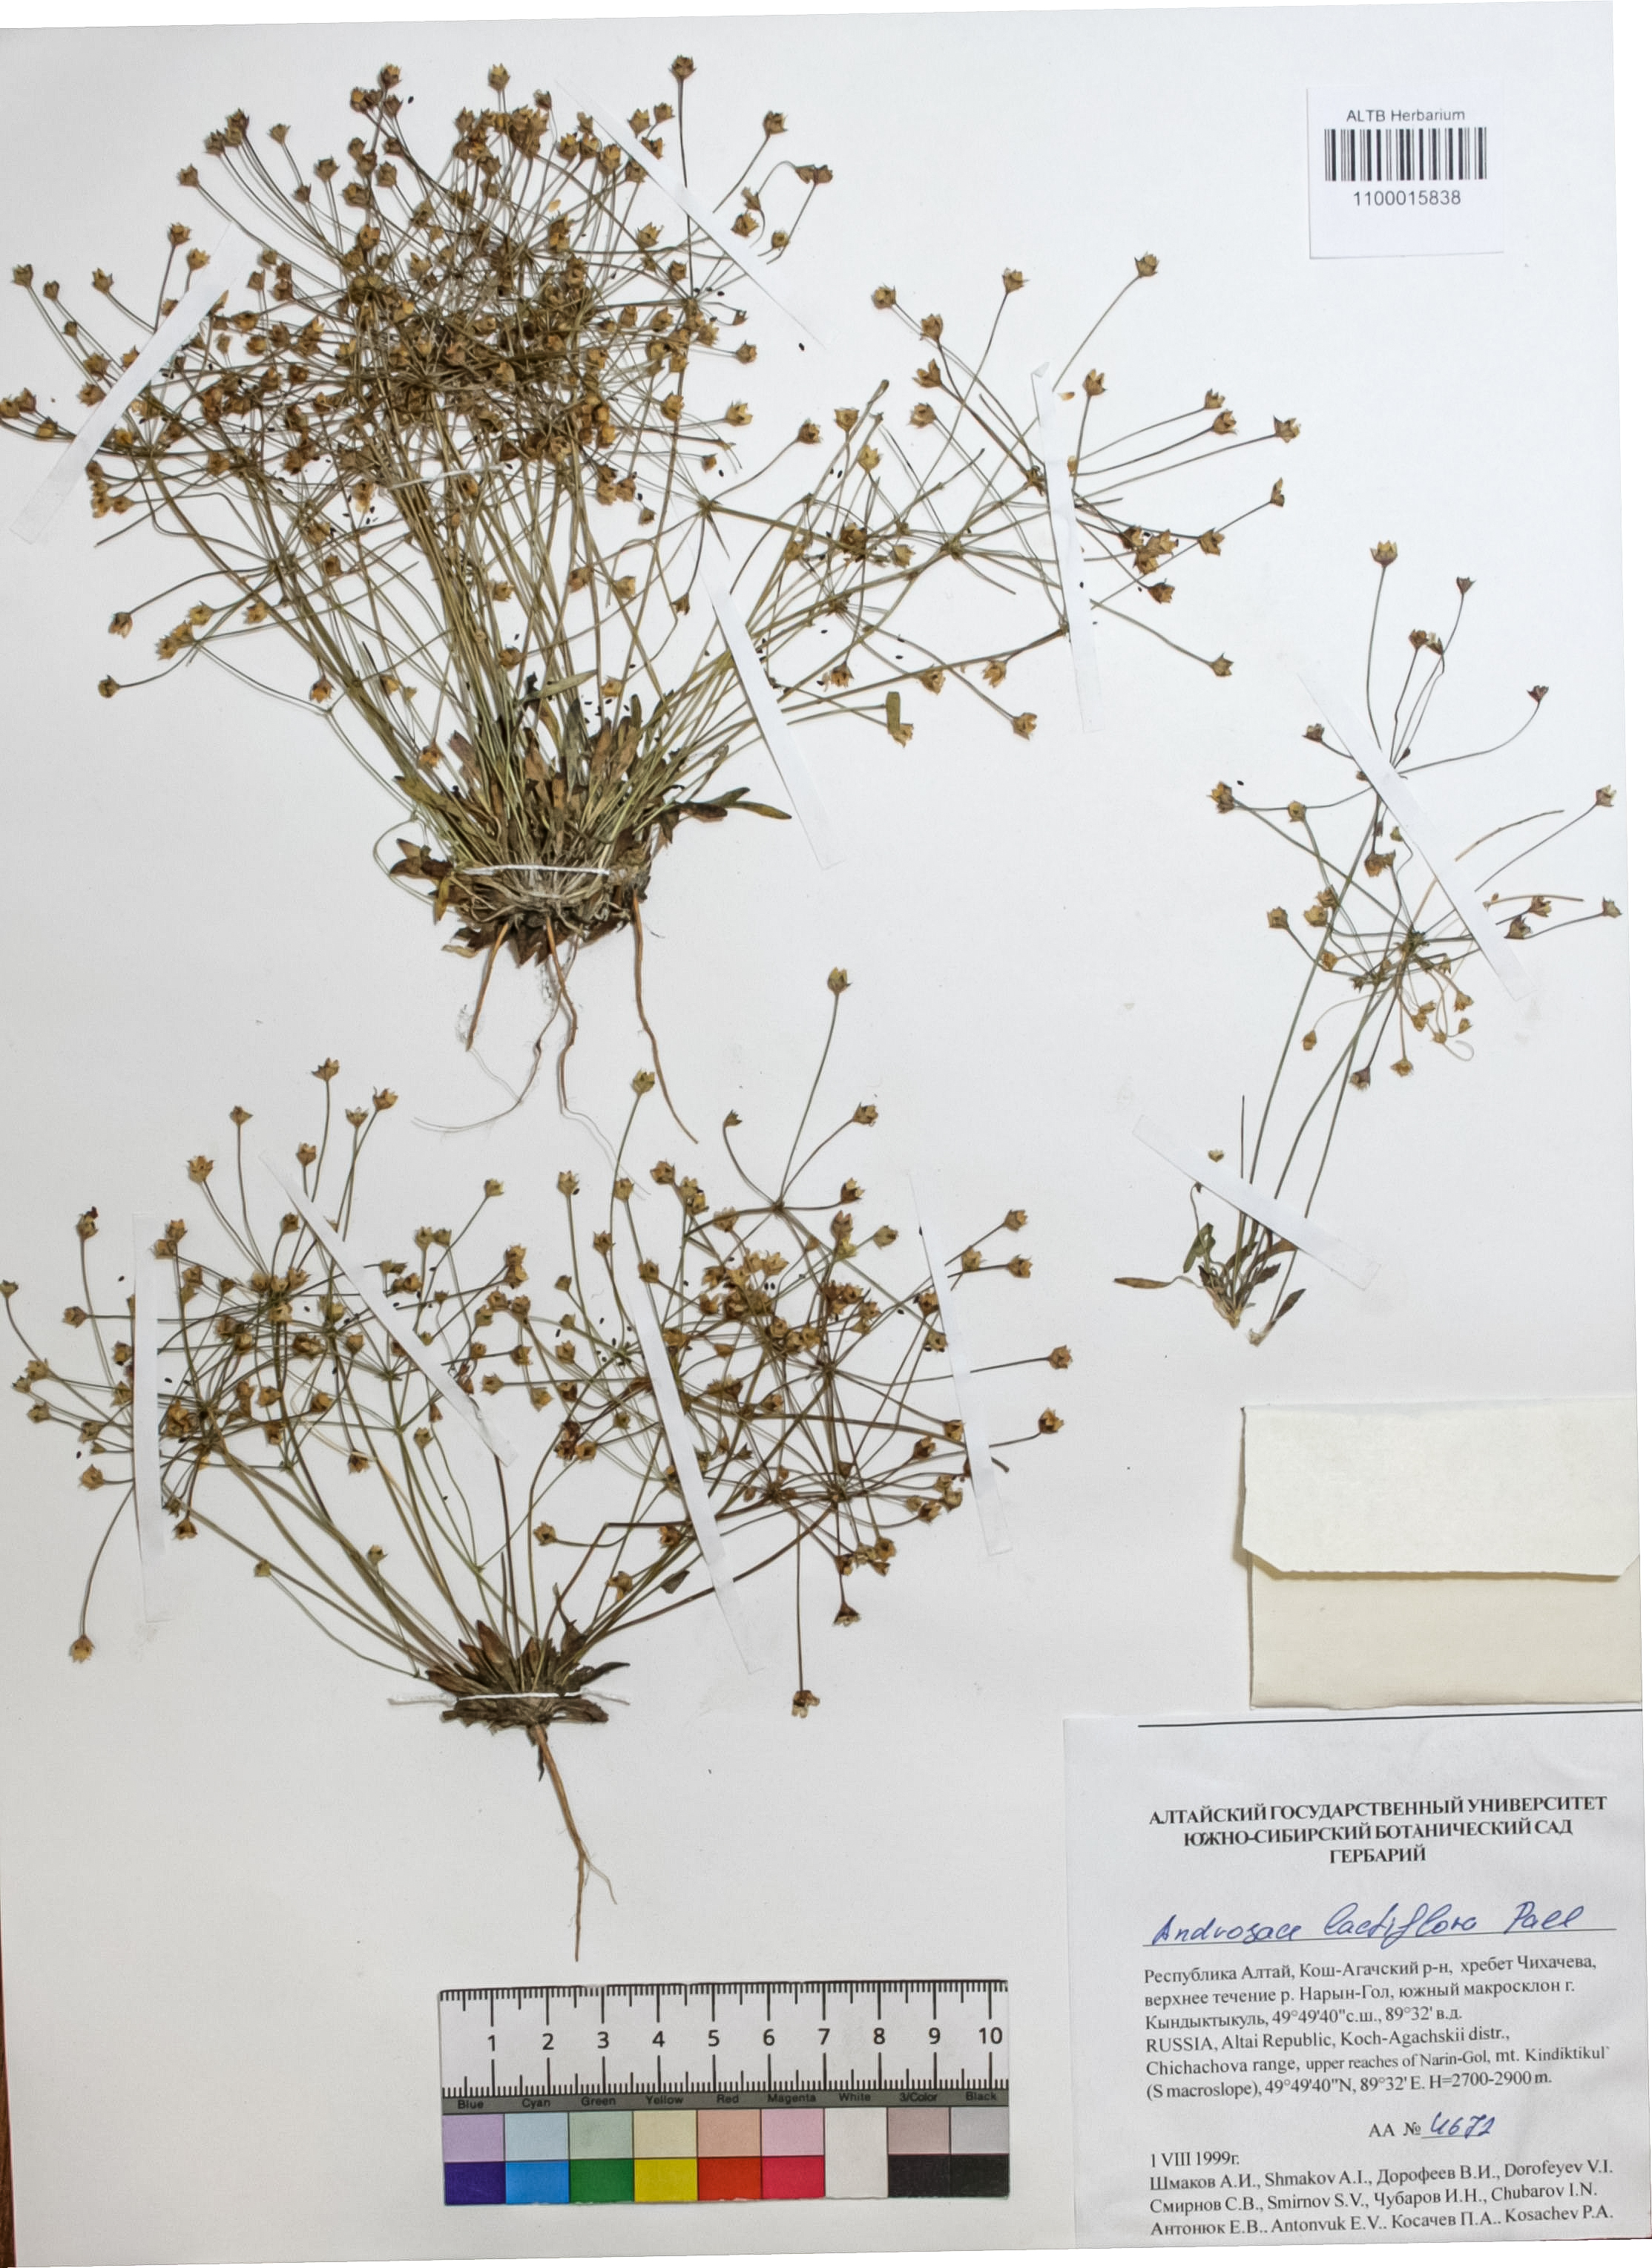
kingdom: Plantae
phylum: Tracheophyta
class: Magnoliopsida
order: Ericales
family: Primulaceae
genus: Androsace
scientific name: Androsace lactiflora
